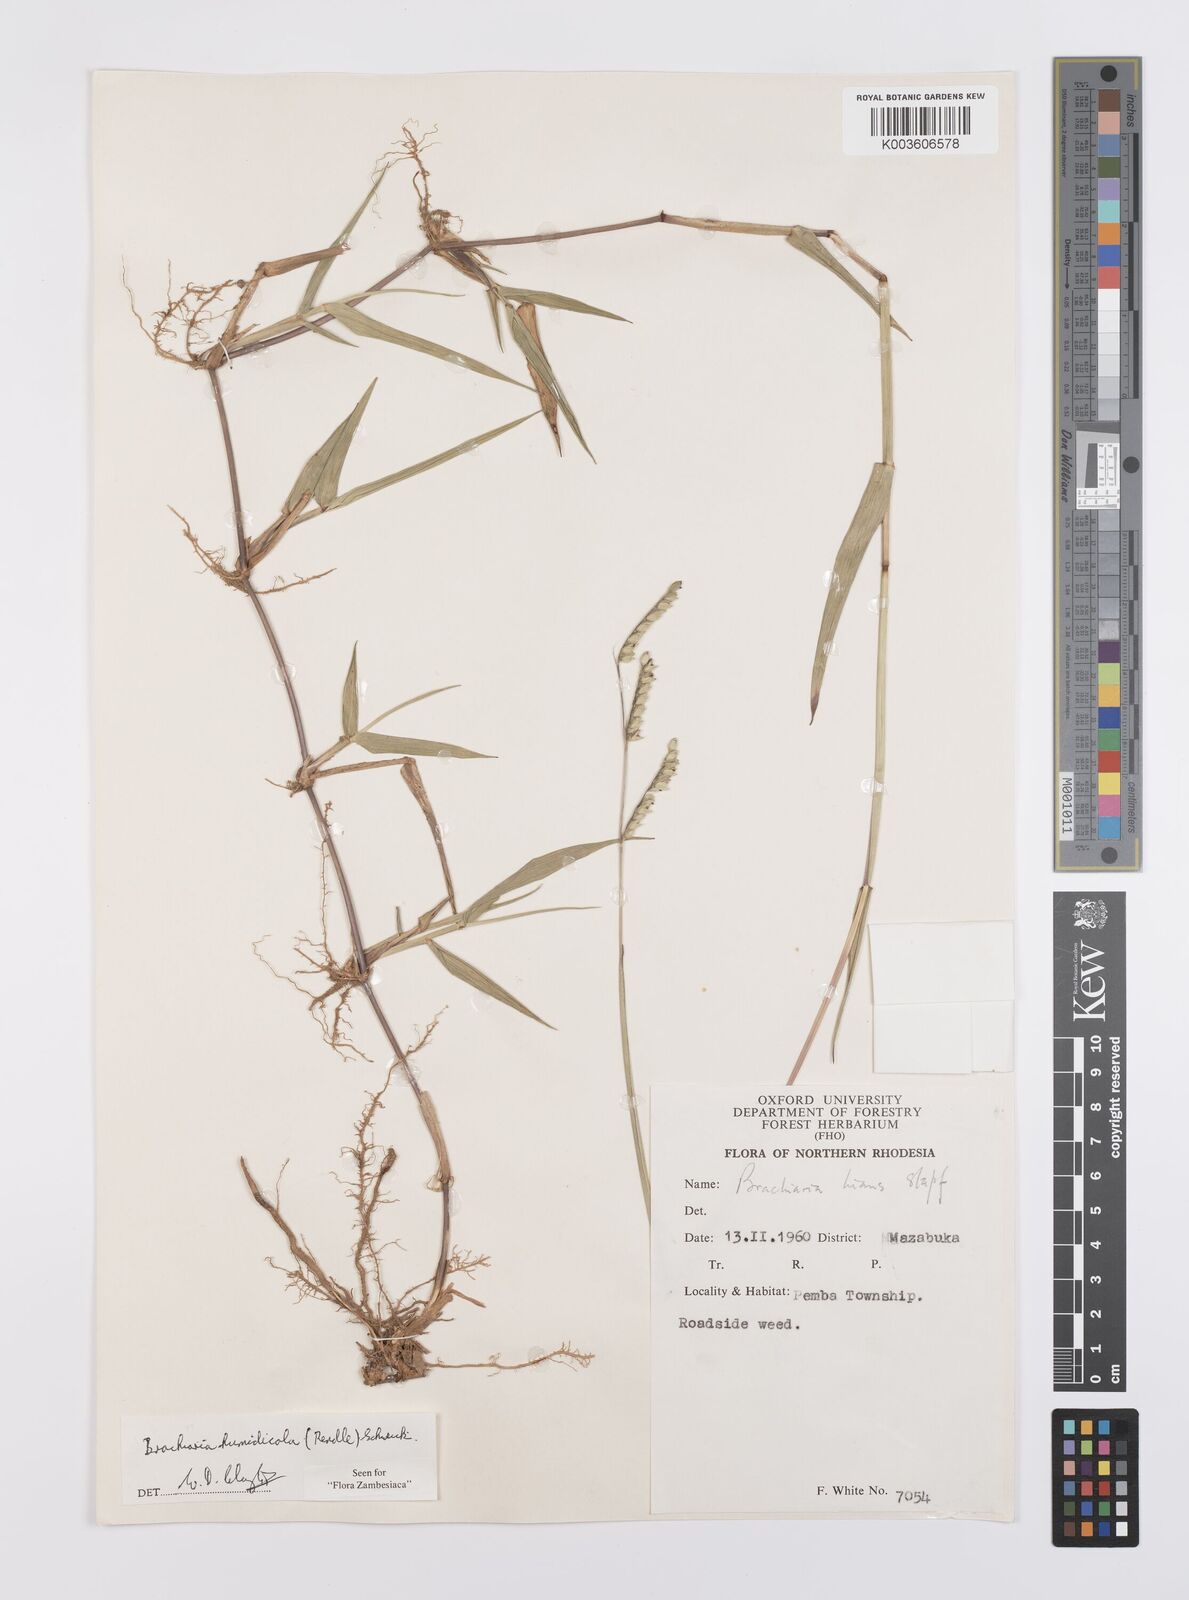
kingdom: Plantae
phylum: Tracheophyta
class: Liliopsida
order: Poales
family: Poaceae
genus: Urochloa
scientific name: Urochloa dictyoneura
